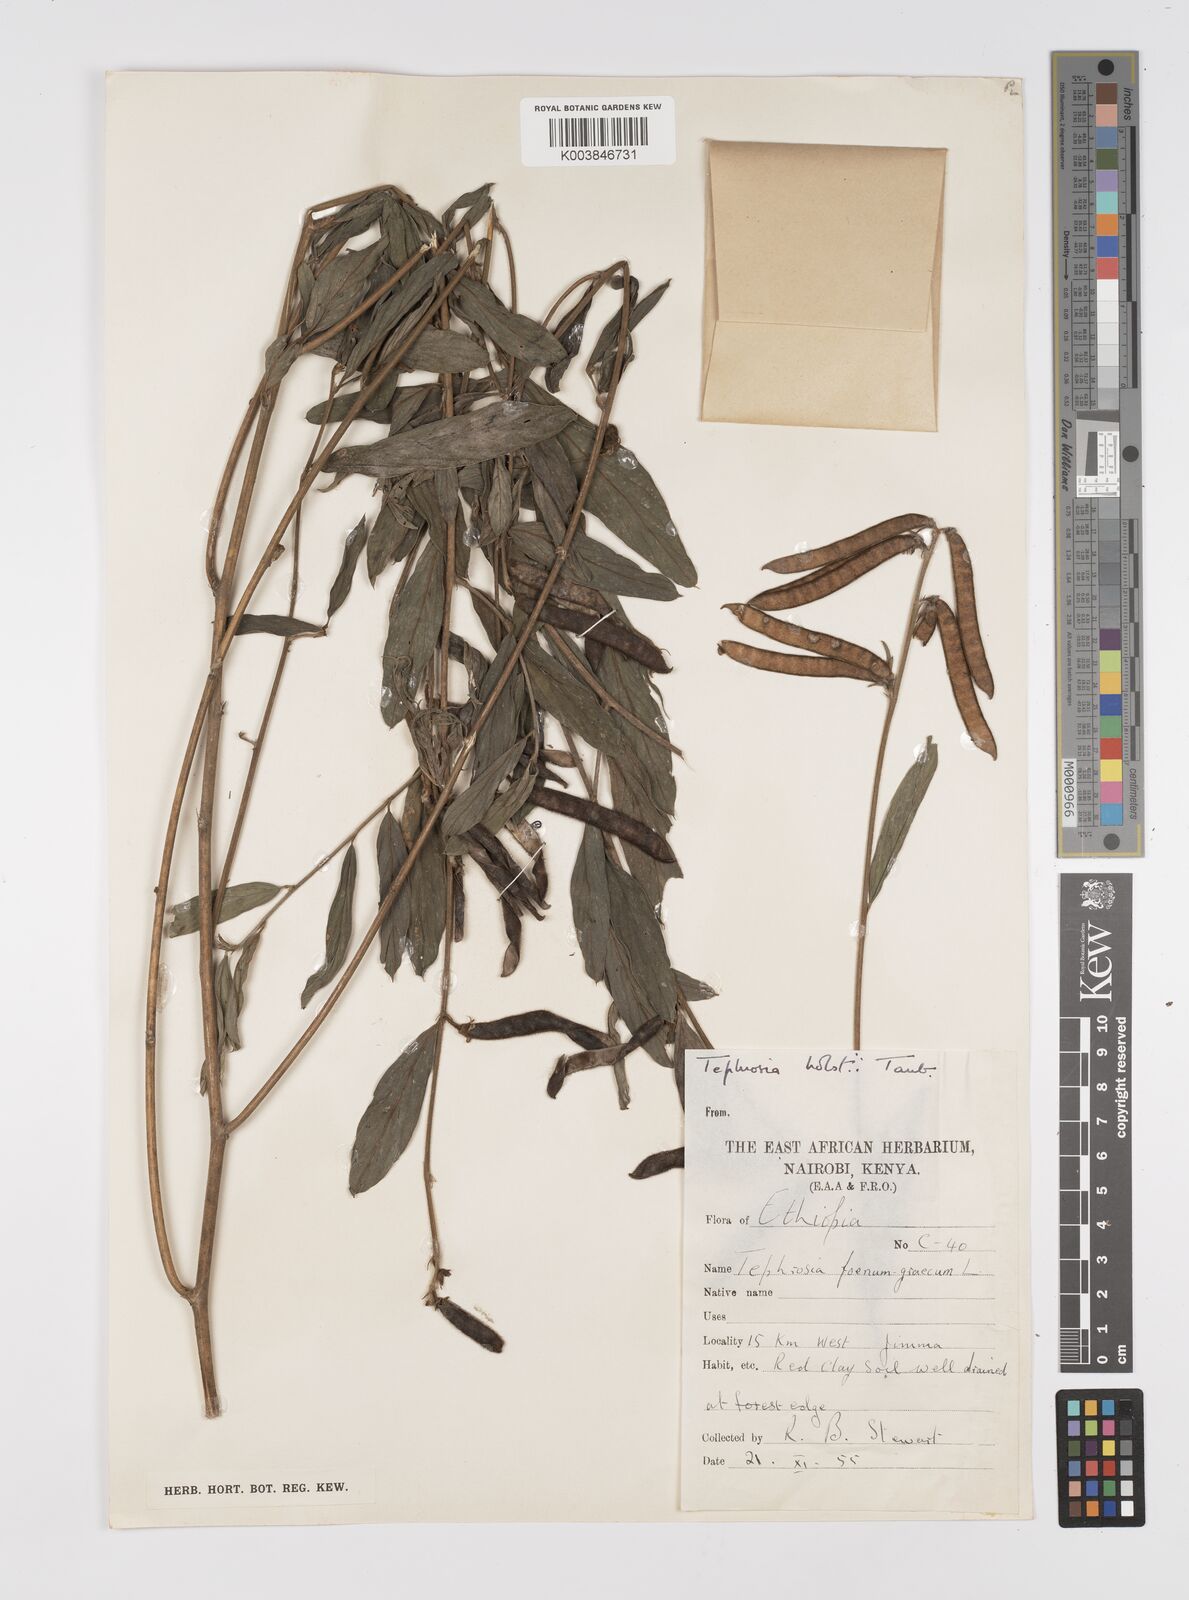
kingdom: Plantae
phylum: Tracheophyta
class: Magnoliopsida
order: Fabales
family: Fabaceae
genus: Tephrosia
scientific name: Tephrosia holstii
